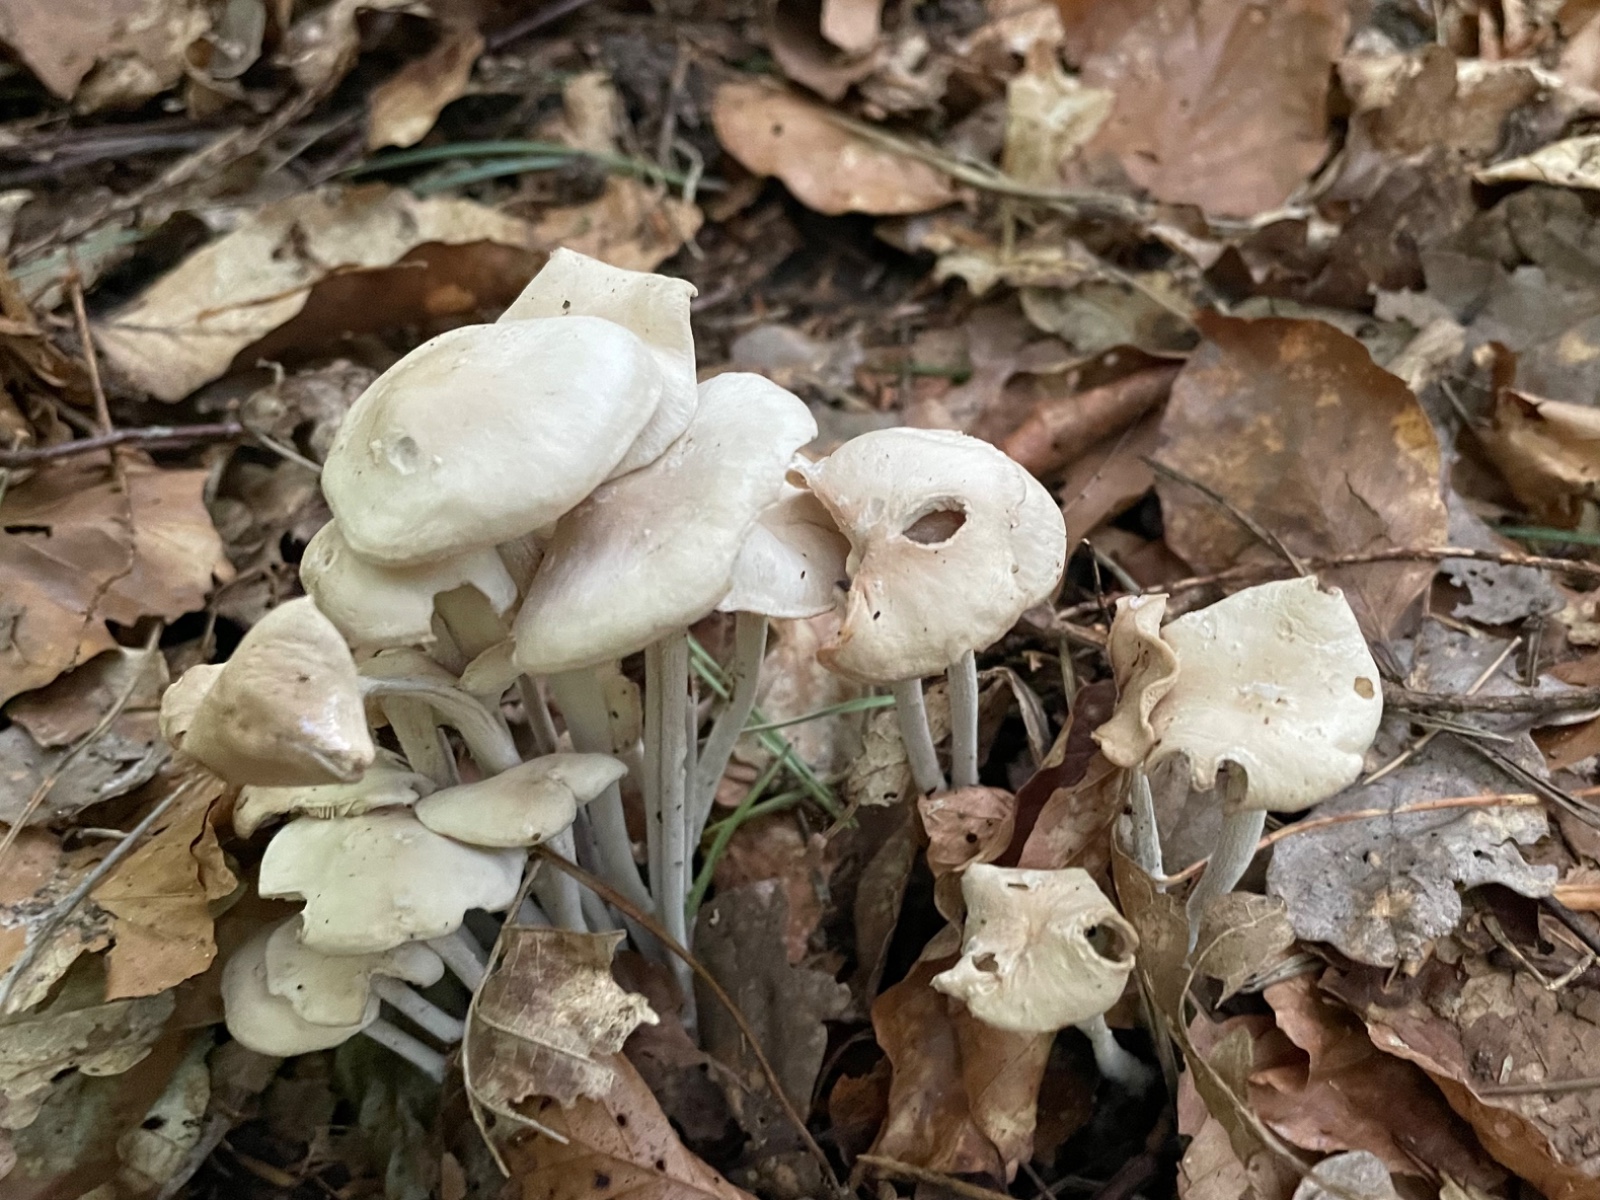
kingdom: Fungi
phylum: Basidiomycota
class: Agaricomycetes
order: Agaricales
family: Omphalotaceae
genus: Collybiopsis
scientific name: Collybiopsis confluens
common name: knippe-fladhat
